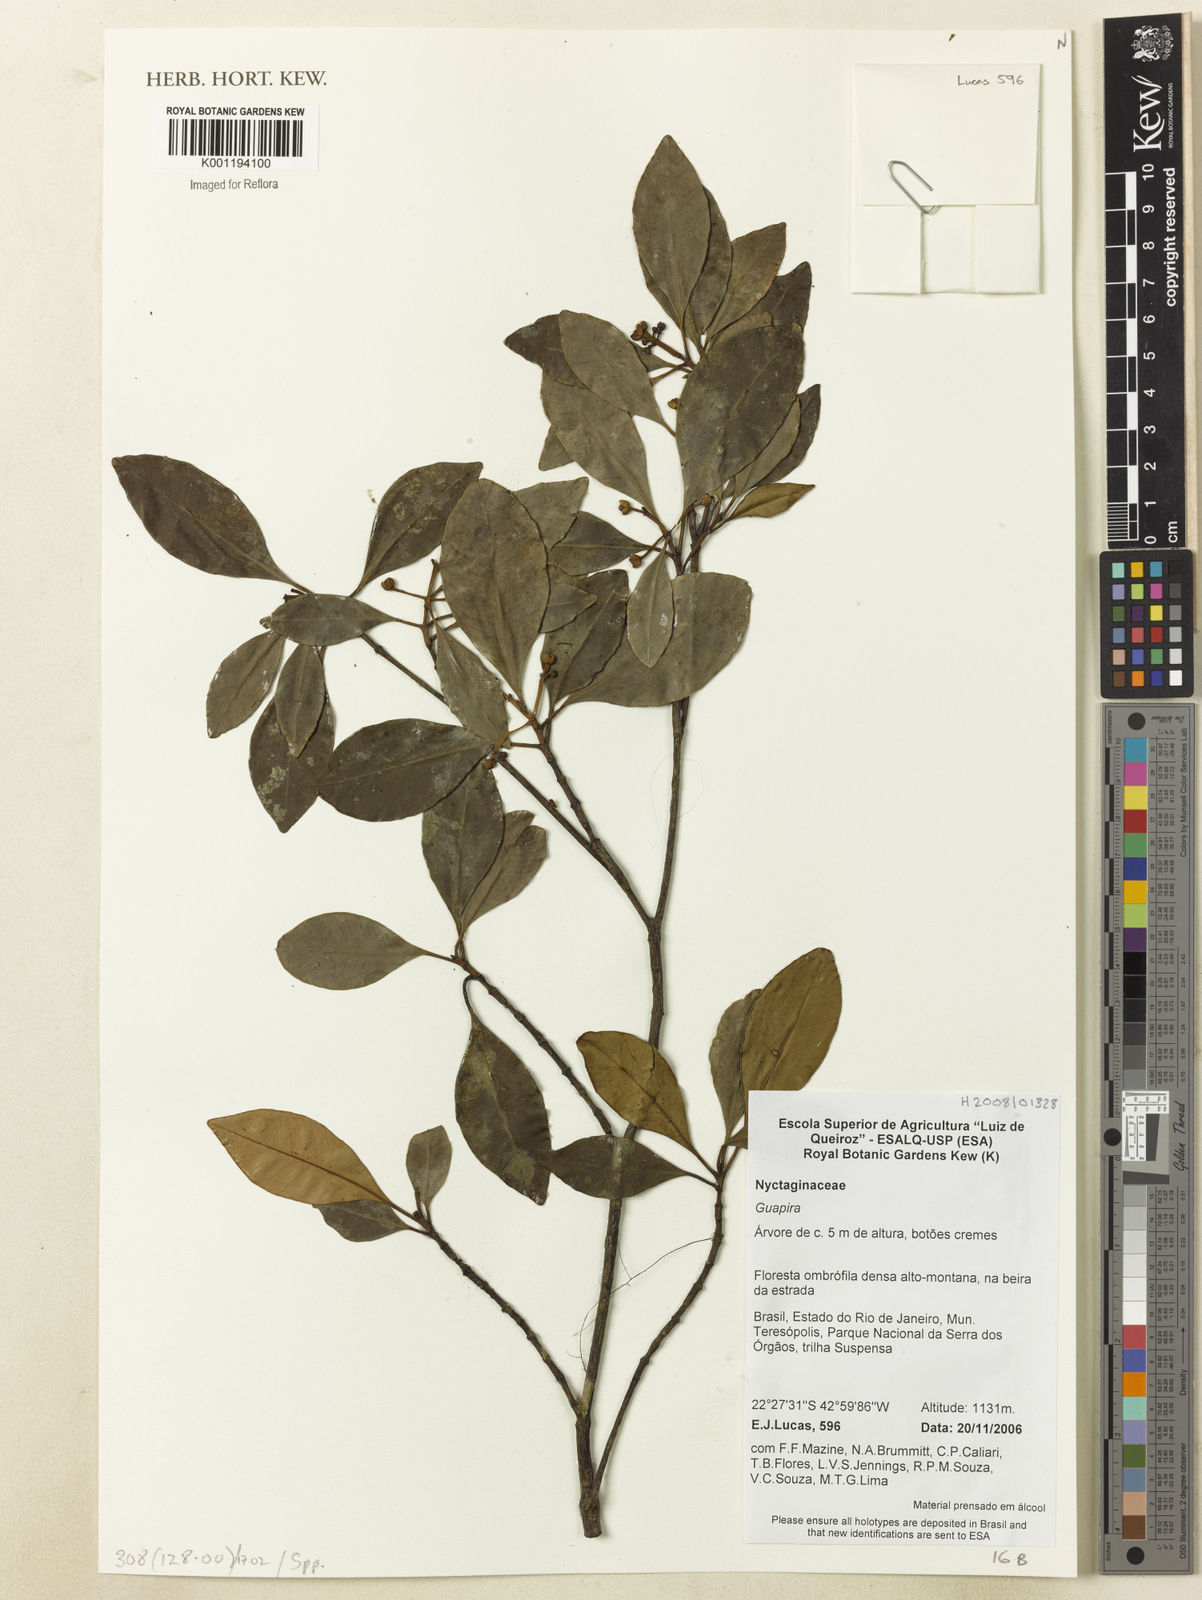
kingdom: Plantae
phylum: Tracheophyta
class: Magnoliopsida
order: Caryophyllales
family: Nyctaginaceae
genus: Guapira
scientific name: Guapira
